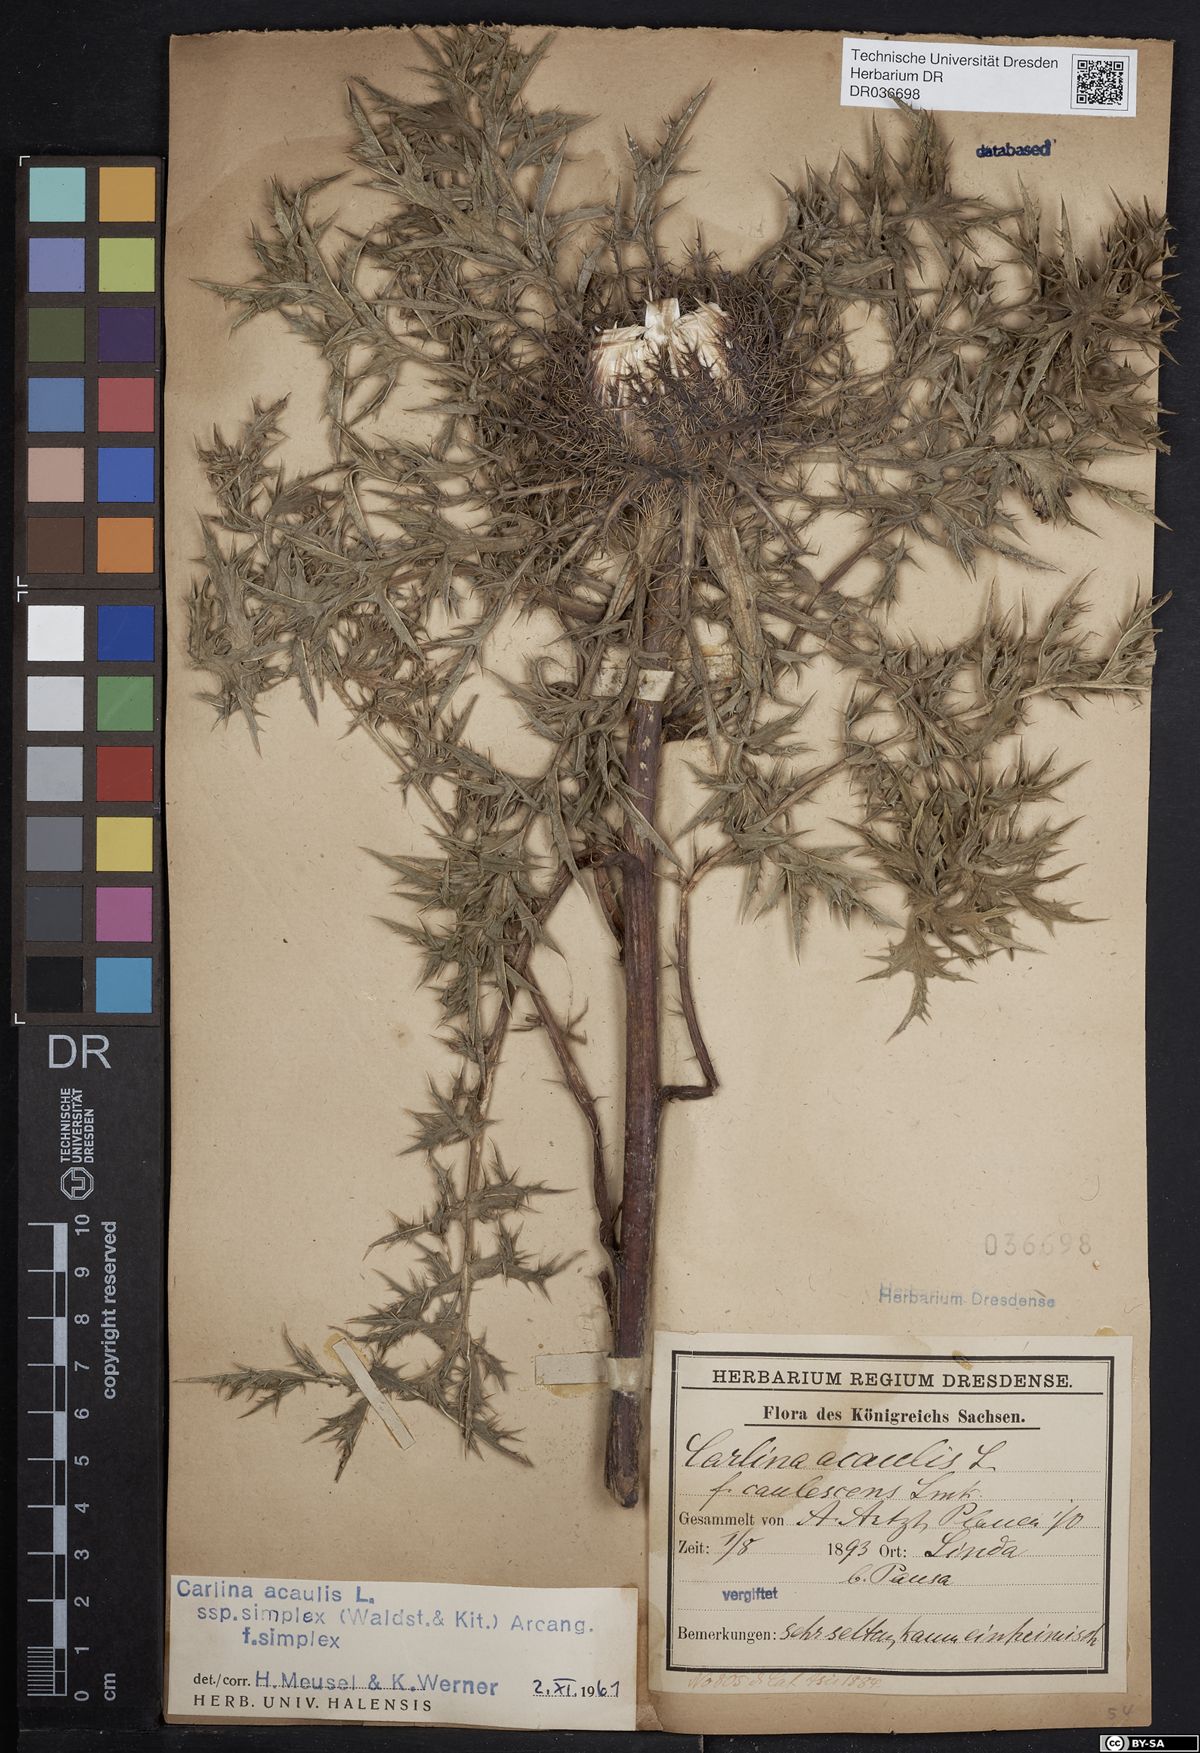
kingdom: Plantae
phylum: Tracheophyta
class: Magnoliopsida
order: Asterales
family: Asteraceae
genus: Carlina
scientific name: Carlina acaulis
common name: Stemless carline thistle
